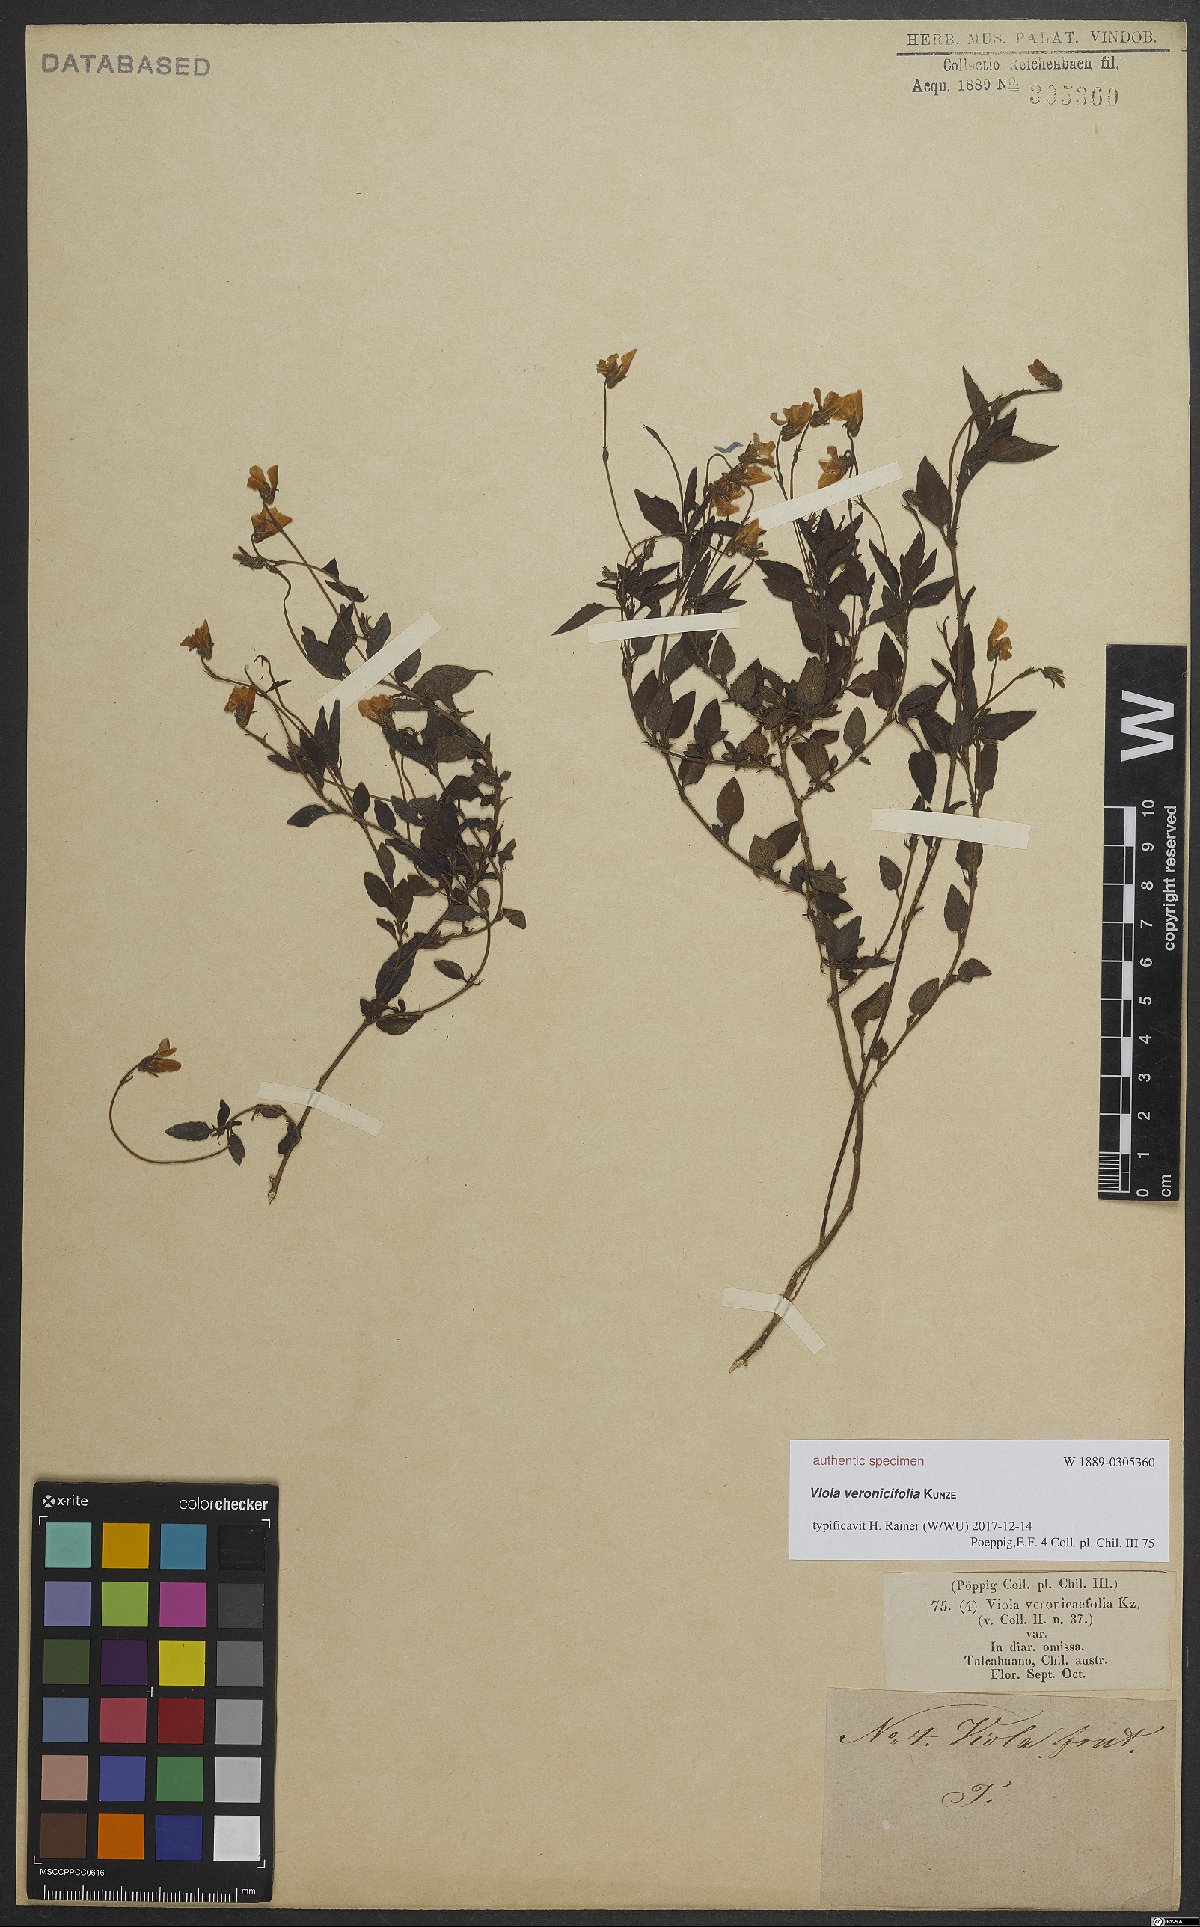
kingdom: Plantae
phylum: Tracheophyta
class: Magnoliopsida
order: Malpighiales
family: Violaceae
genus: Viola
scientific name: Viola capillaris
